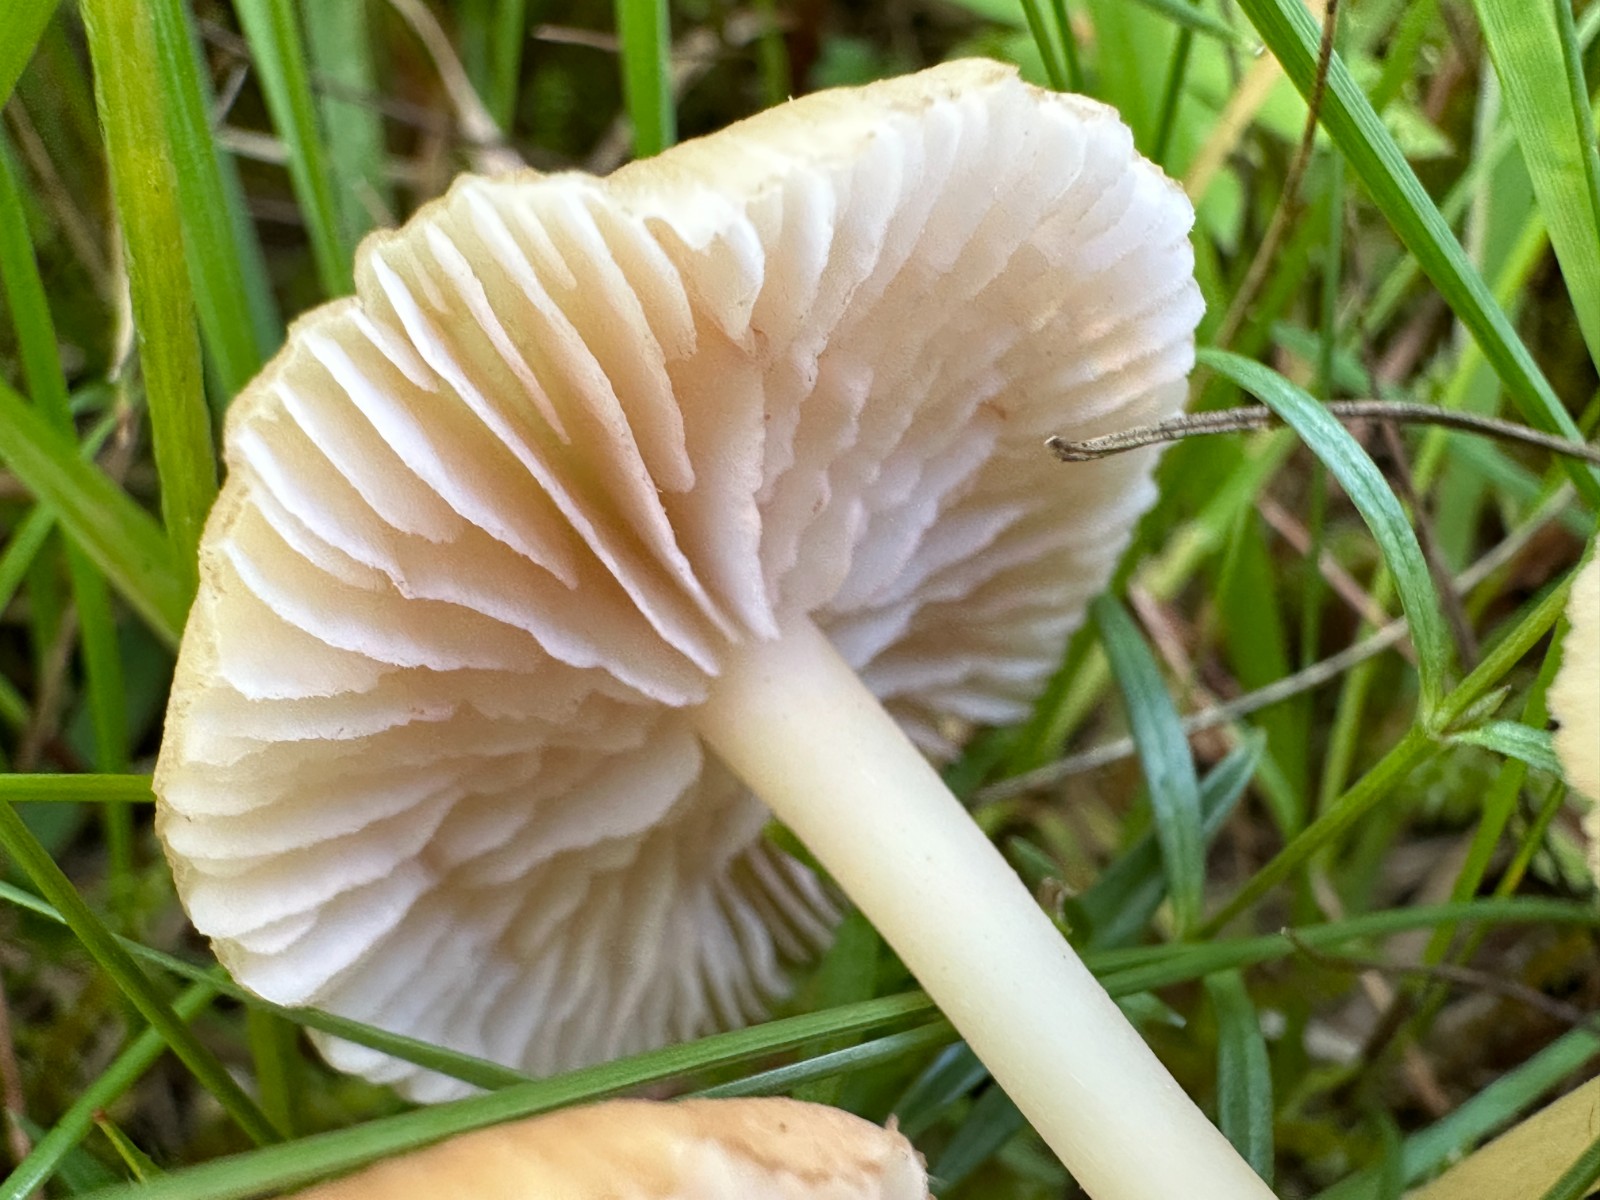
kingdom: Fungi
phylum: Basidiomycota
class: Agaricomycetes
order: Agaricales
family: Entolomataceae
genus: Entoloma
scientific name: Entoloma
